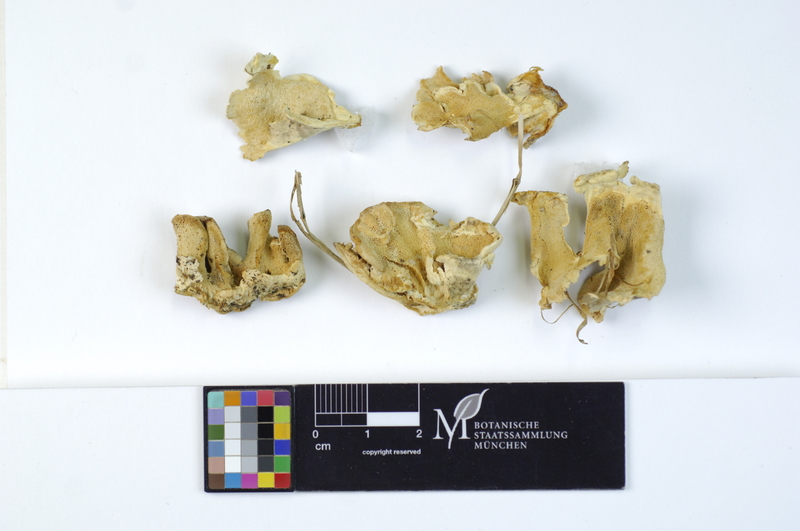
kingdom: Plantae
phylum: Tracheophyta
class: Pinopsida
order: Pinales
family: Pinaceae
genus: Picea
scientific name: Picea
